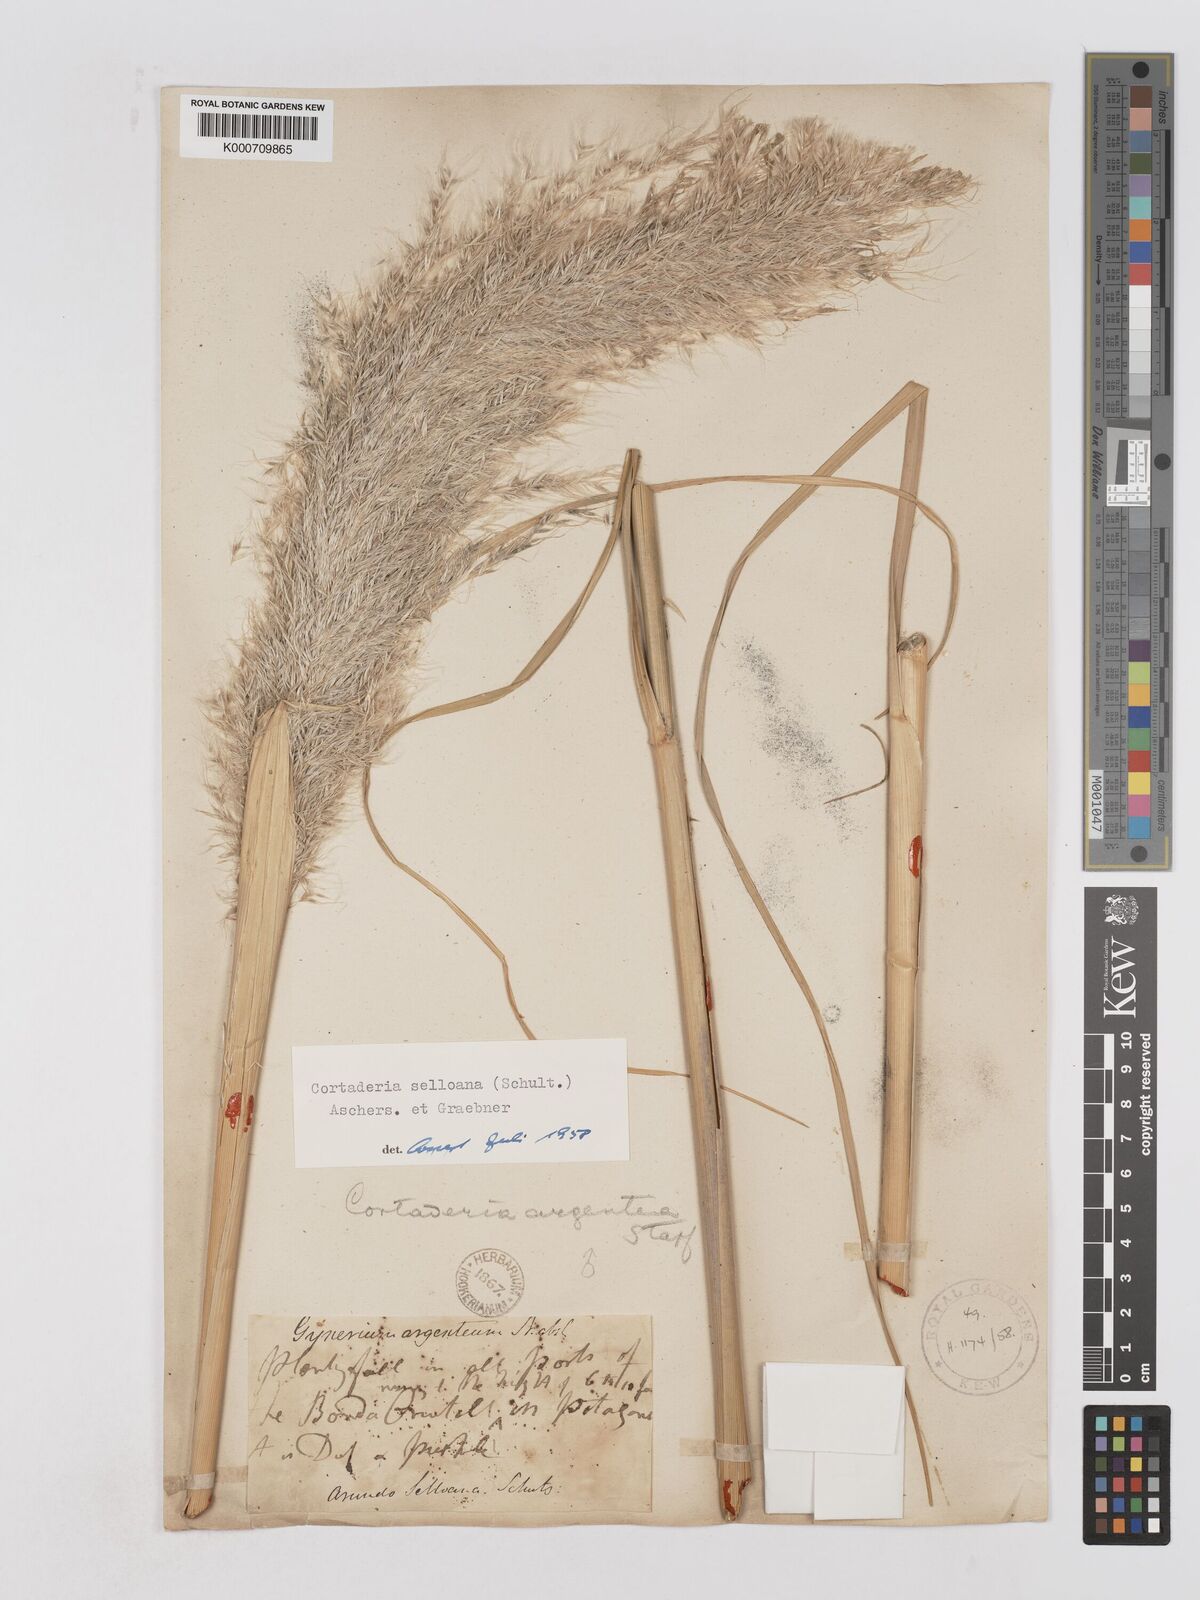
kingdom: Plantae
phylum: Tracheophyta
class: Liliopsida
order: Poales
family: Poaceae
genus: Cortaderia
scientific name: Cortaderia selloana
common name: Uruguayan pampas grass
